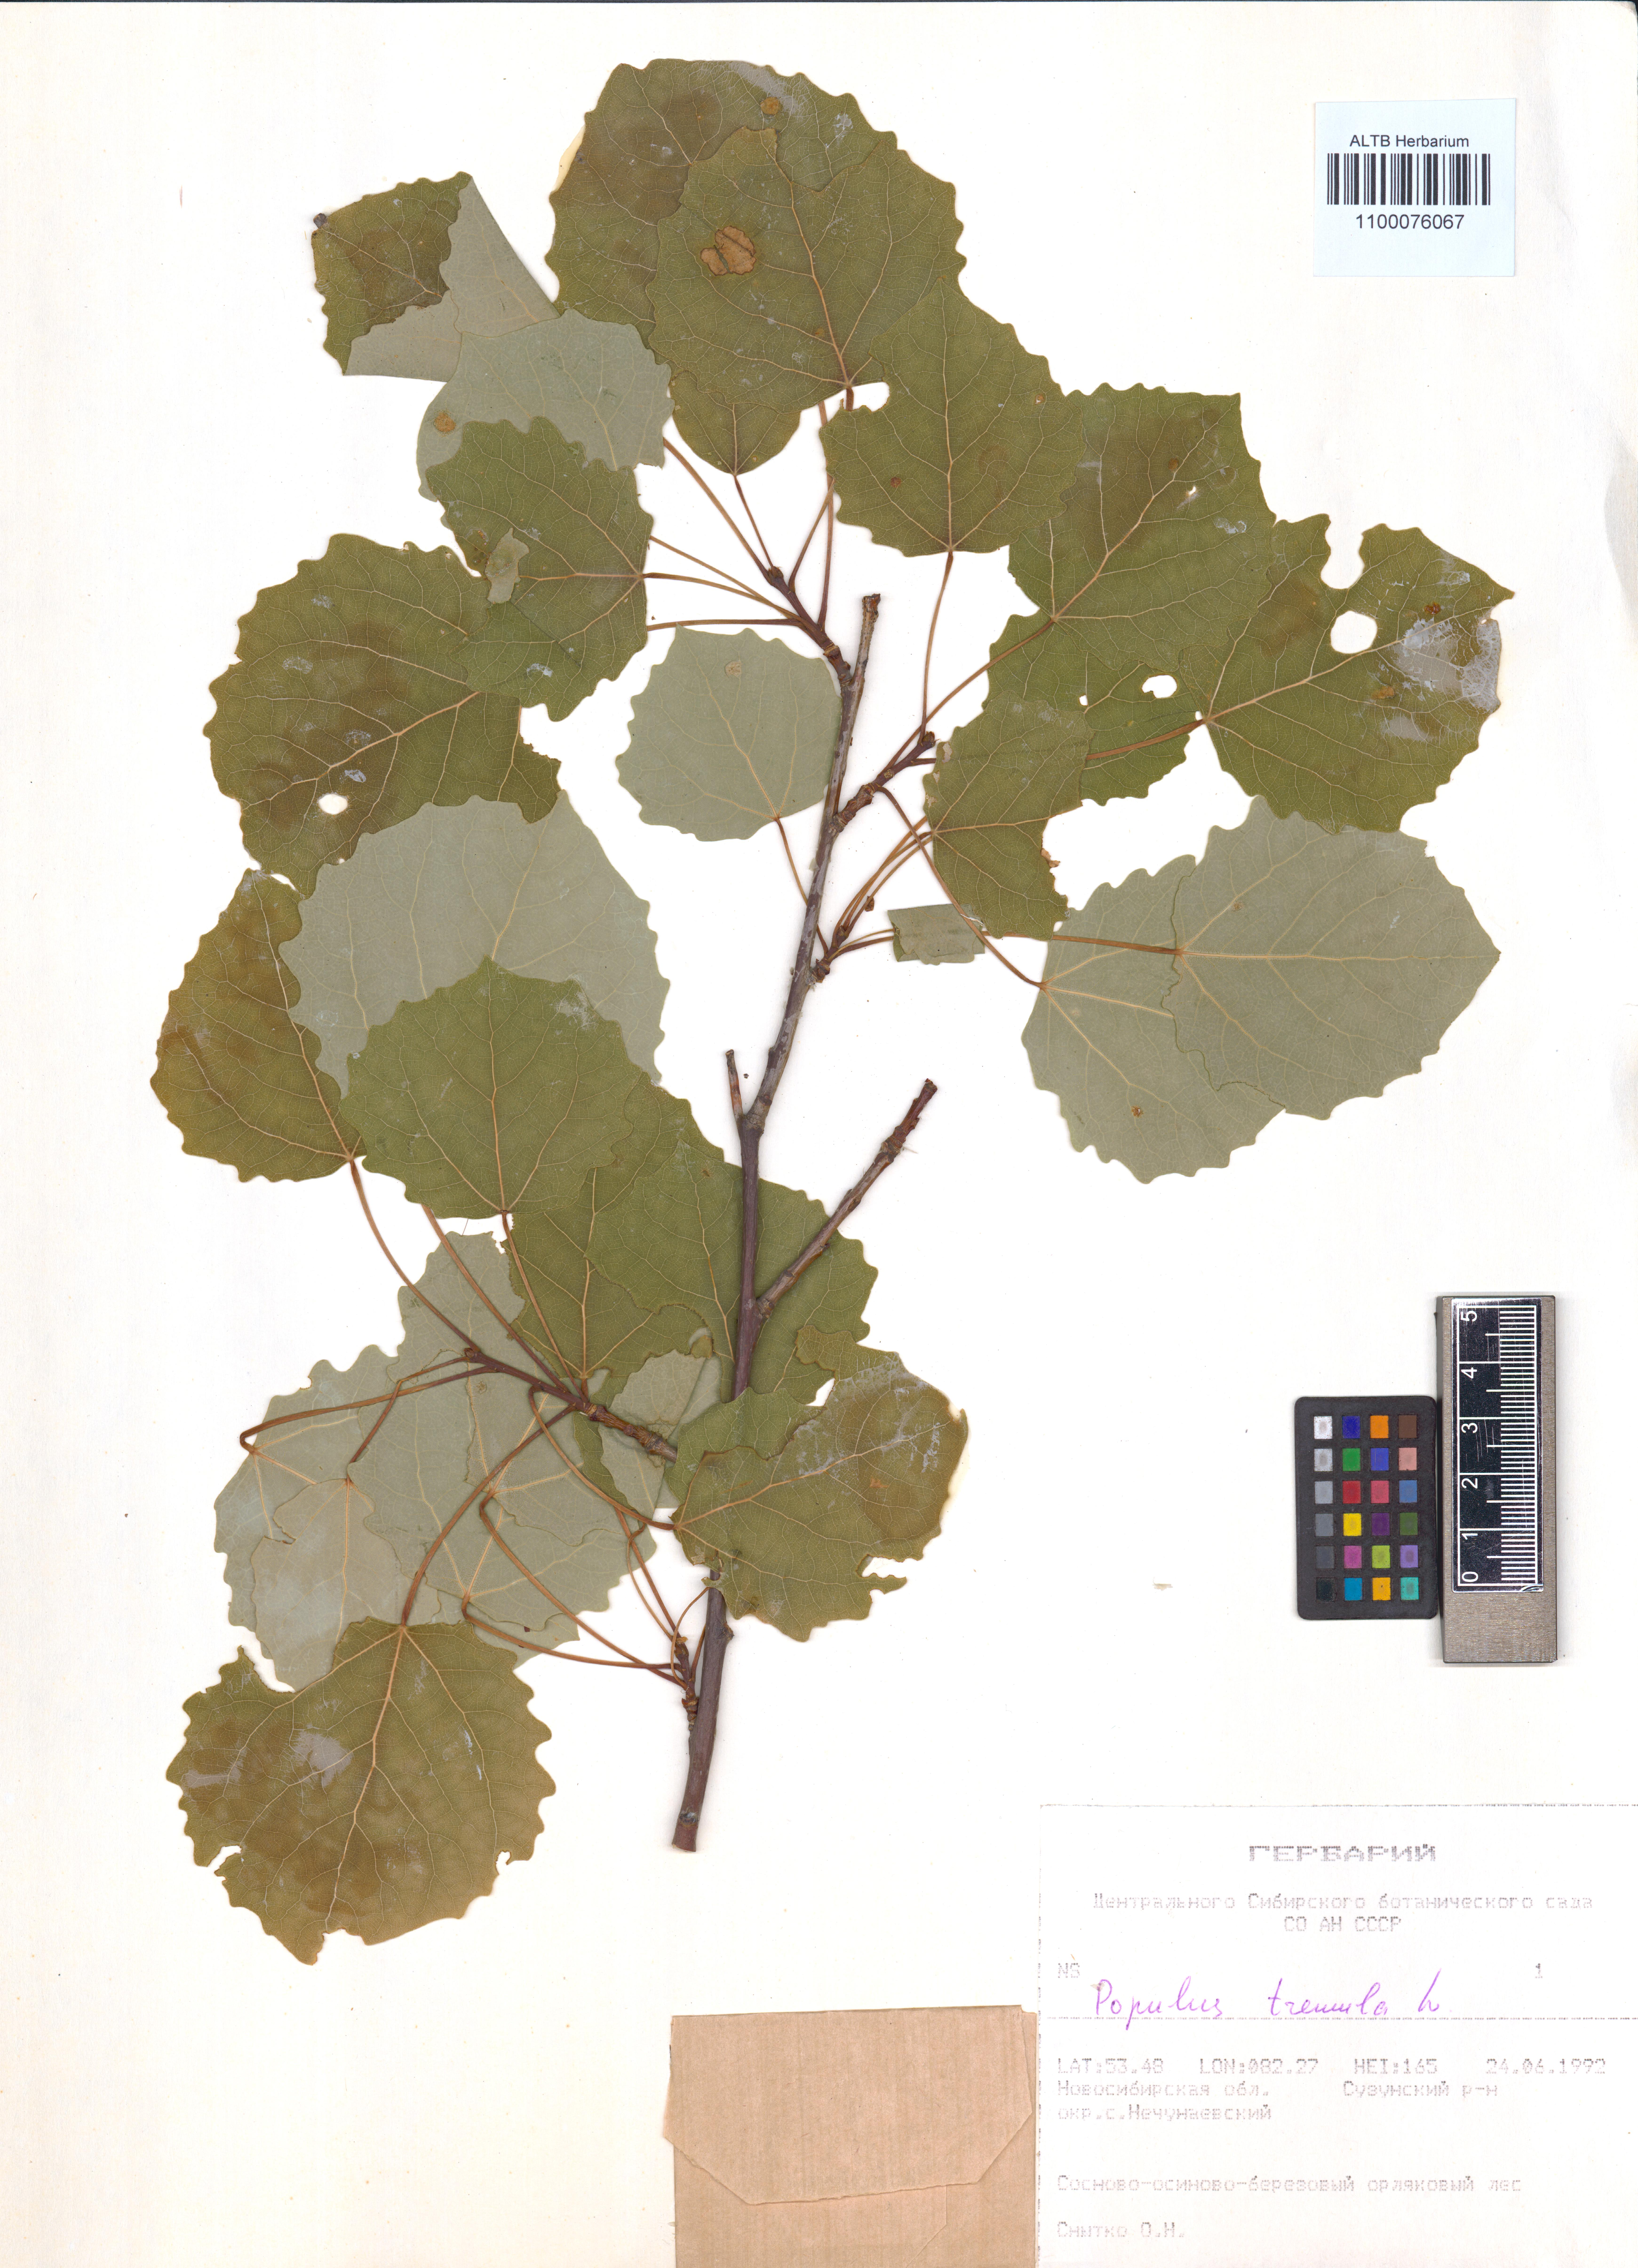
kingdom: Plantae
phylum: Tracheophyta
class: Magnoliopsida
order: Malpighiales
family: Salicaceae
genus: Populus
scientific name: Populus tremula
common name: European aspen
